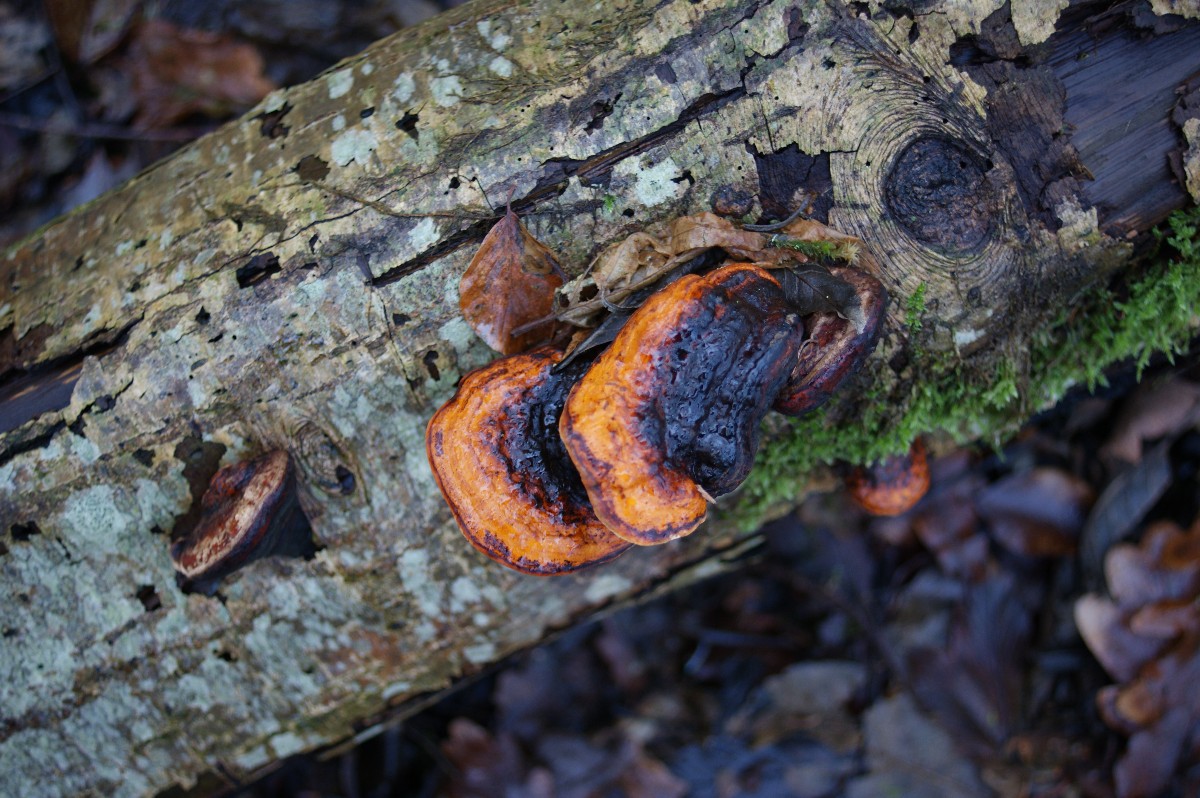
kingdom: Fungi
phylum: Basidiomycota
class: Agaricomycetes
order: Polyporales
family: Fomitopsidaceae
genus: Fomitopsis
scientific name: Fomitopsis pinicola
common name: randbæltet hovporesvamp
